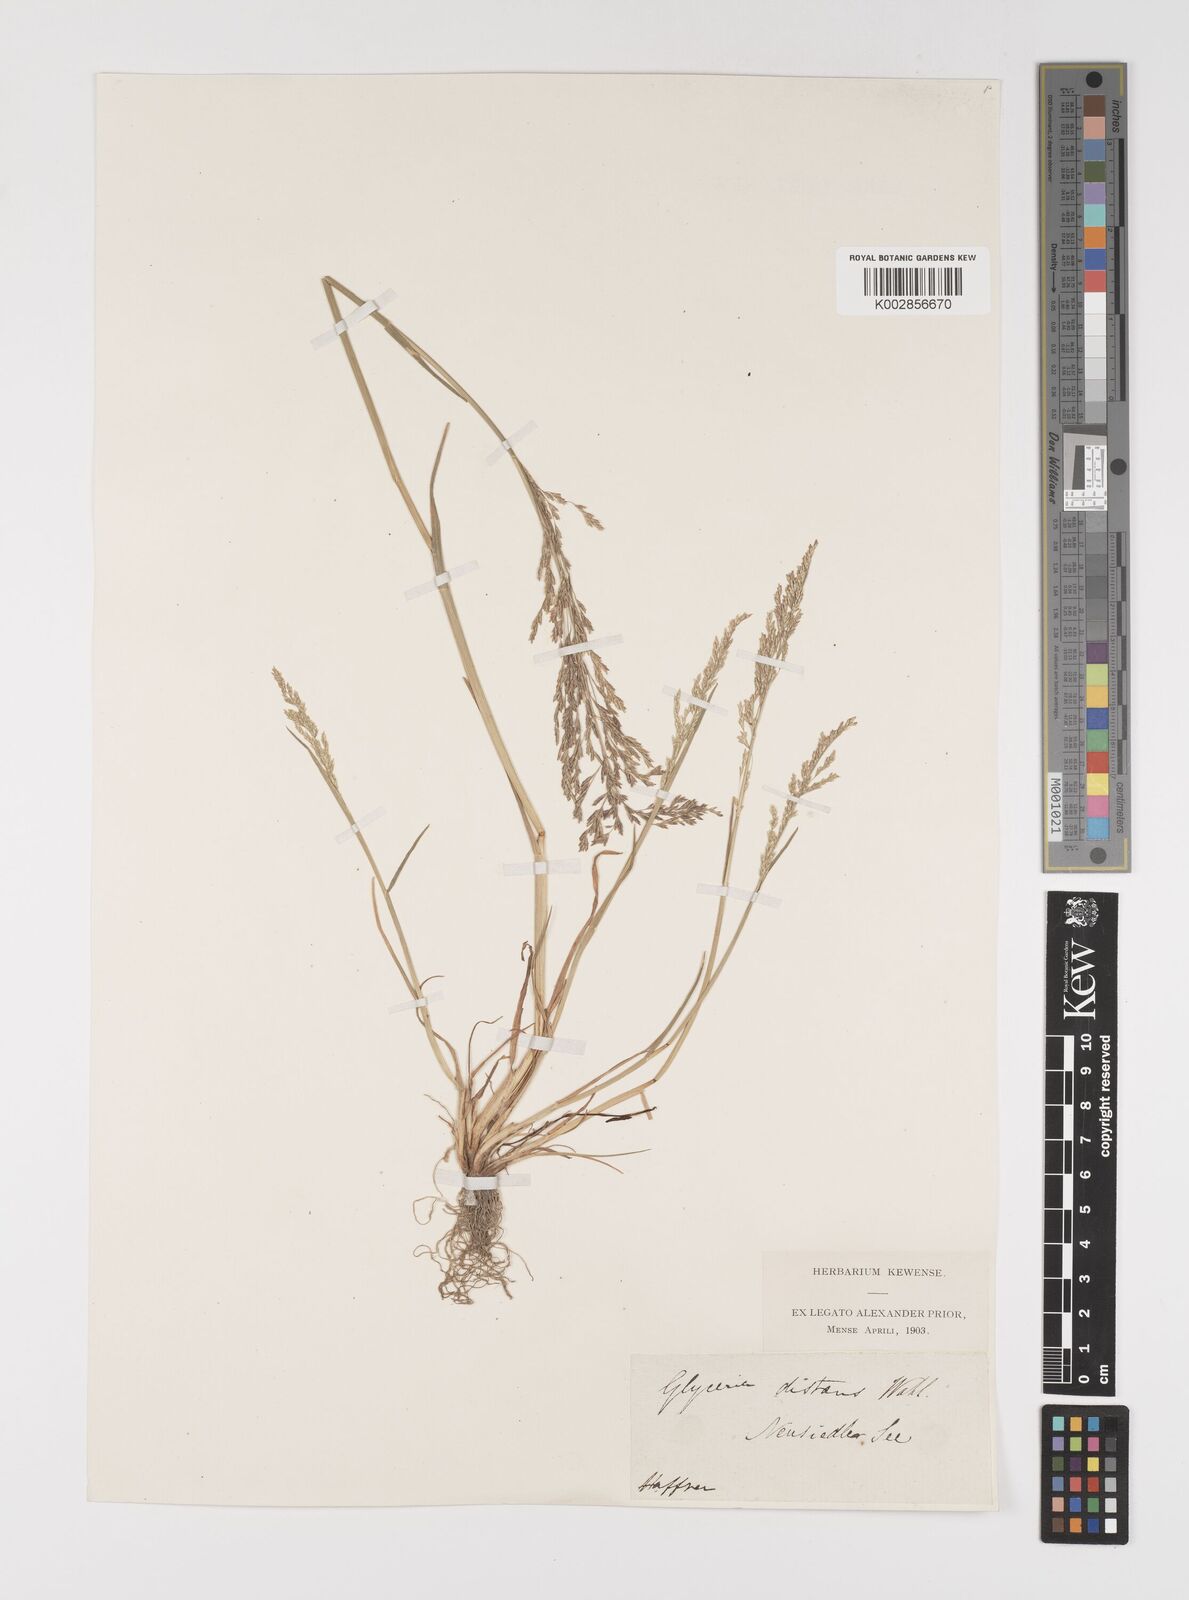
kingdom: Plantae
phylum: Tracheophyta
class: Liliopsida
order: Poales
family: Poaceae
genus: Puccinellia
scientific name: Puccinellia
